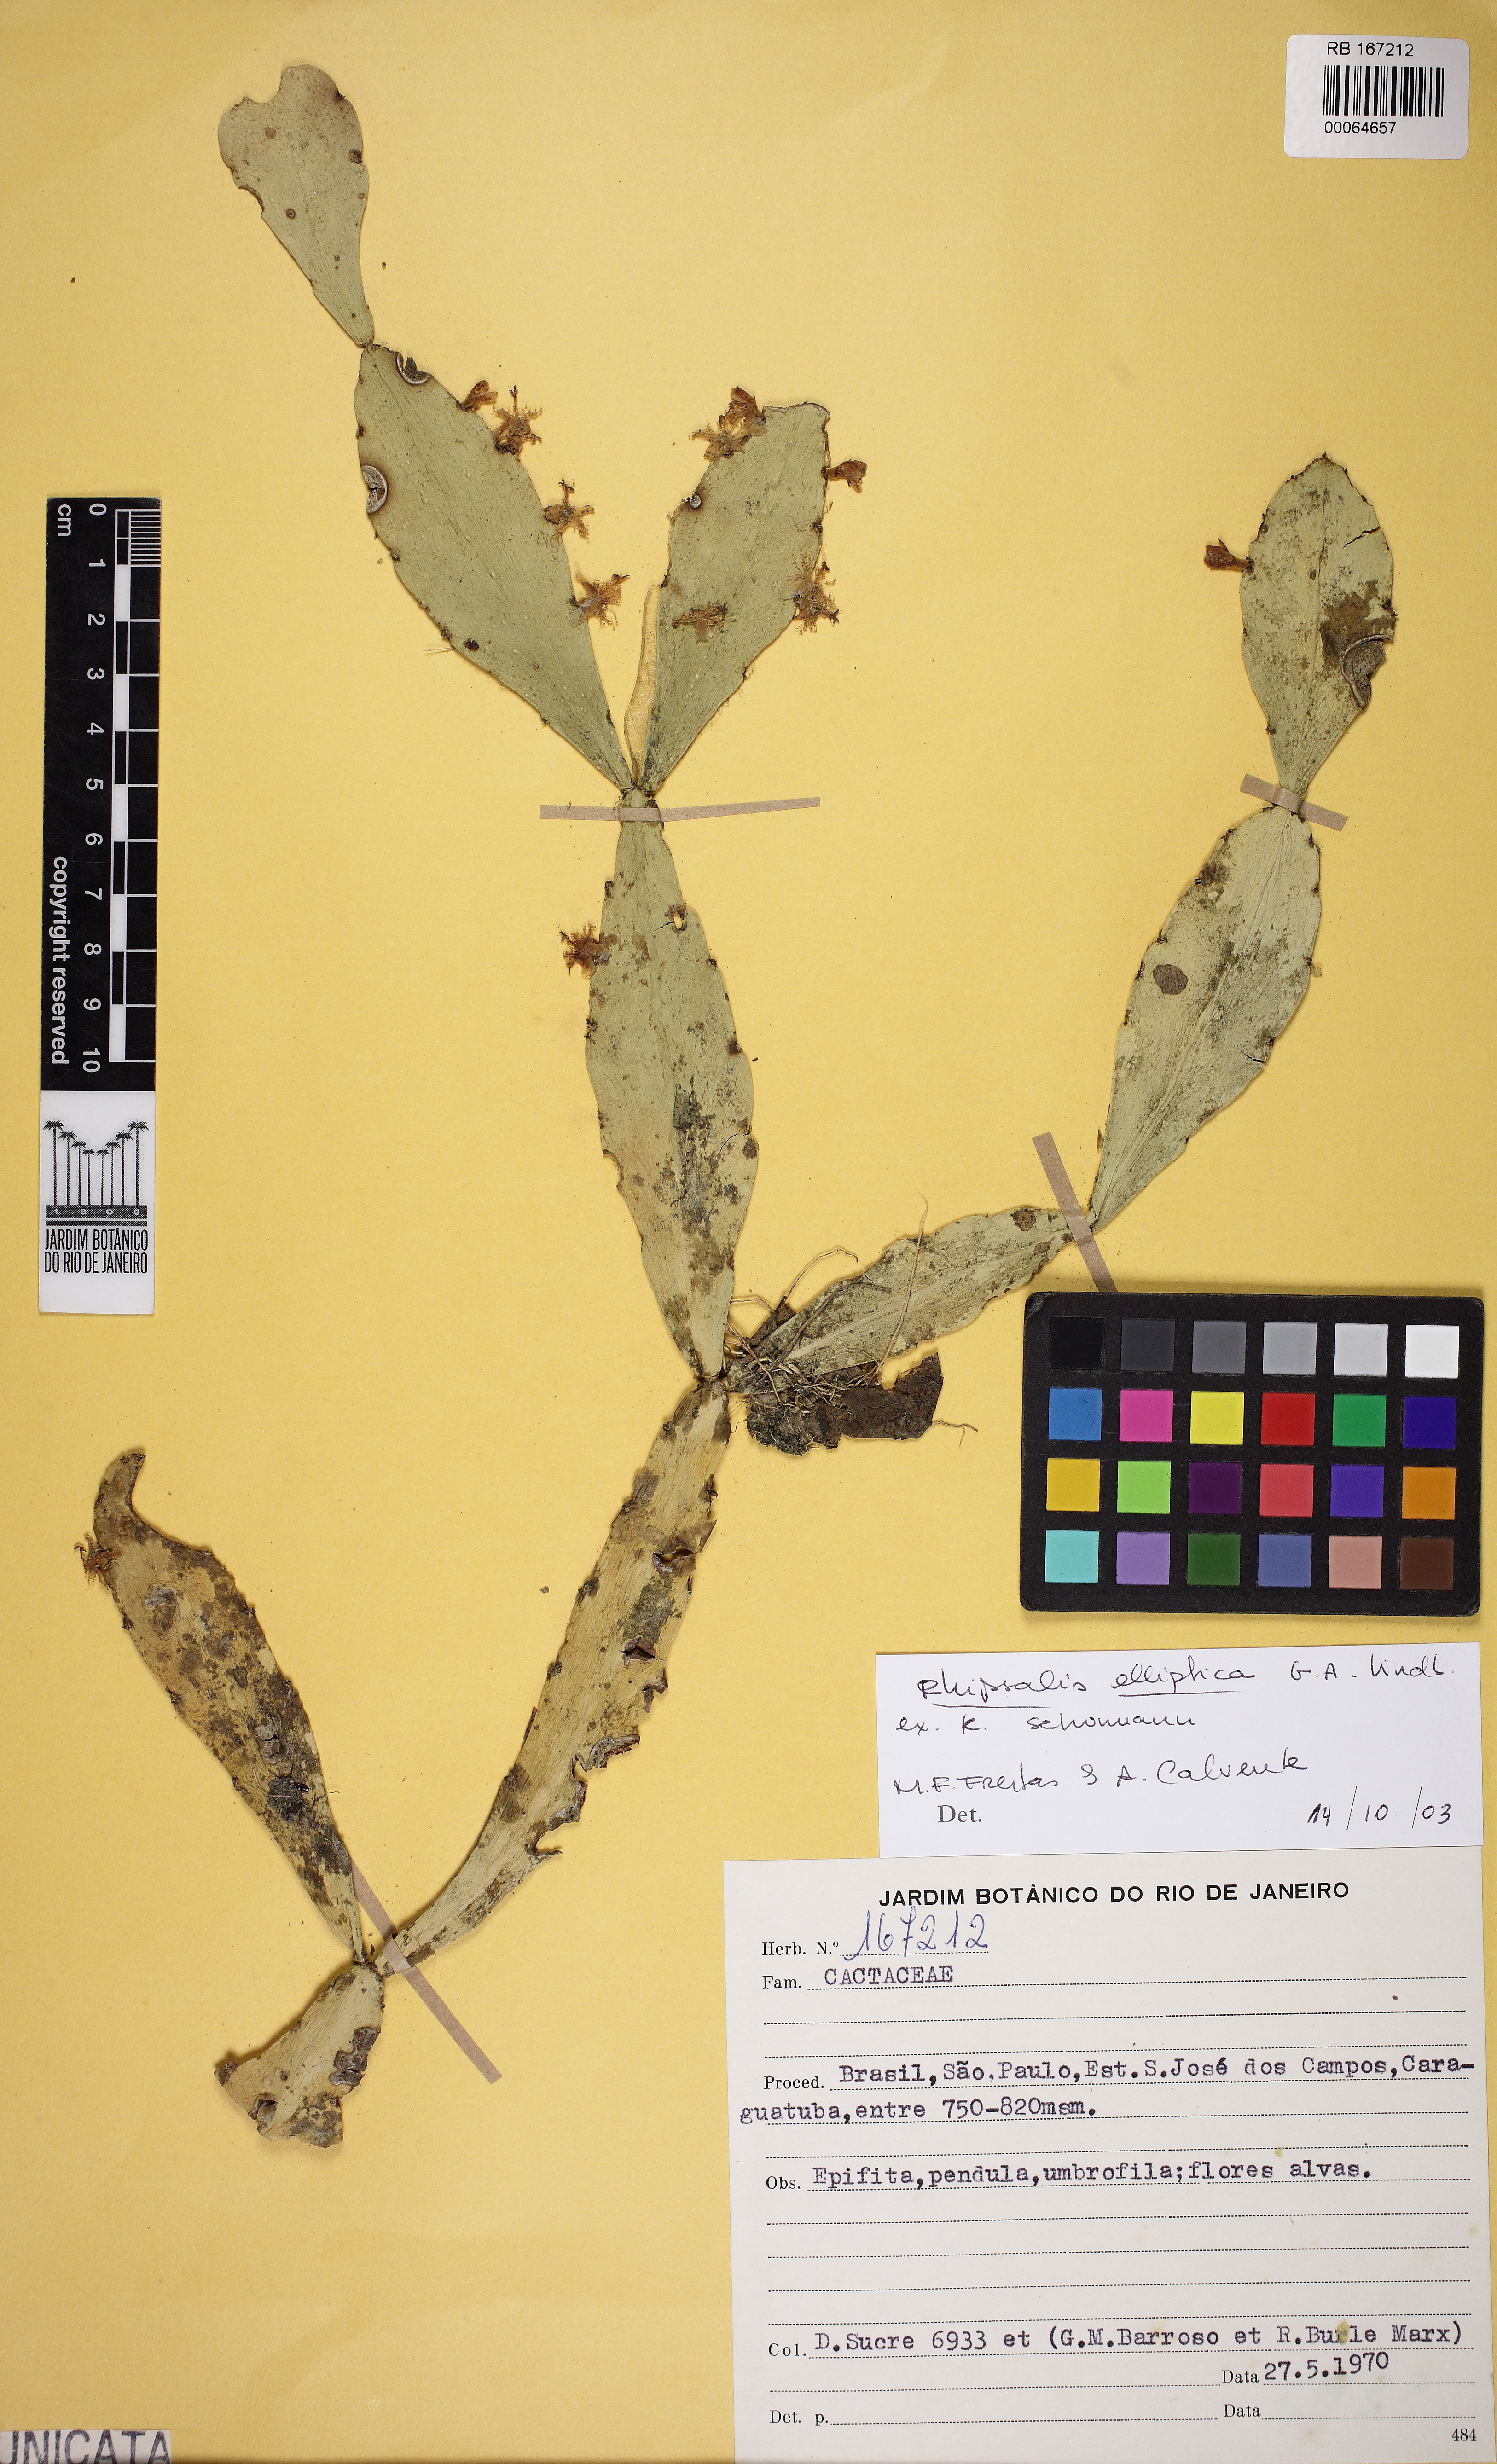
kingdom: Plantae
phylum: Tracheophyta
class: Magnoliopsida
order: Caryophyllales
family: Cactaceae
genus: Rhipsalis
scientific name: Rhipsalis elliptica
